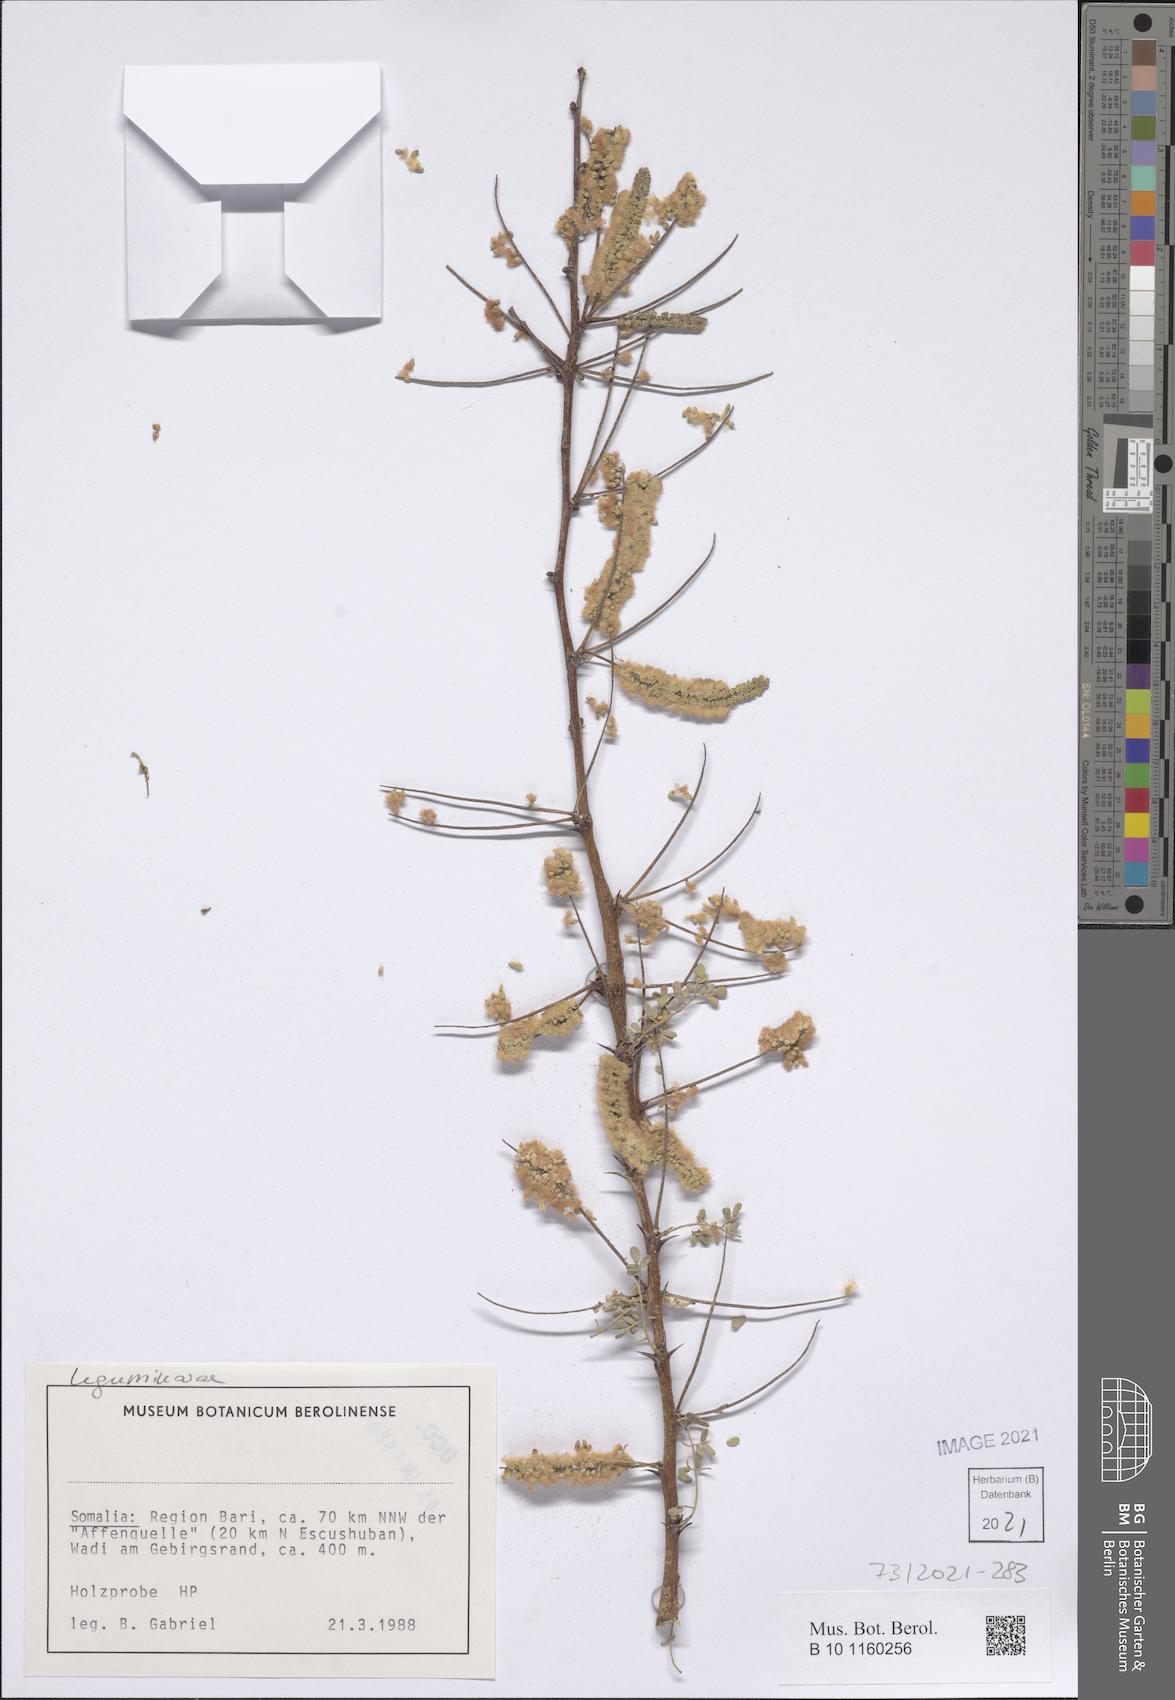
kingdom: Plantae
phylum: Tracheophyta
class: Magnoliopsida
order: Fabales
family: Fabaceae
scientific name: Fabaceae
